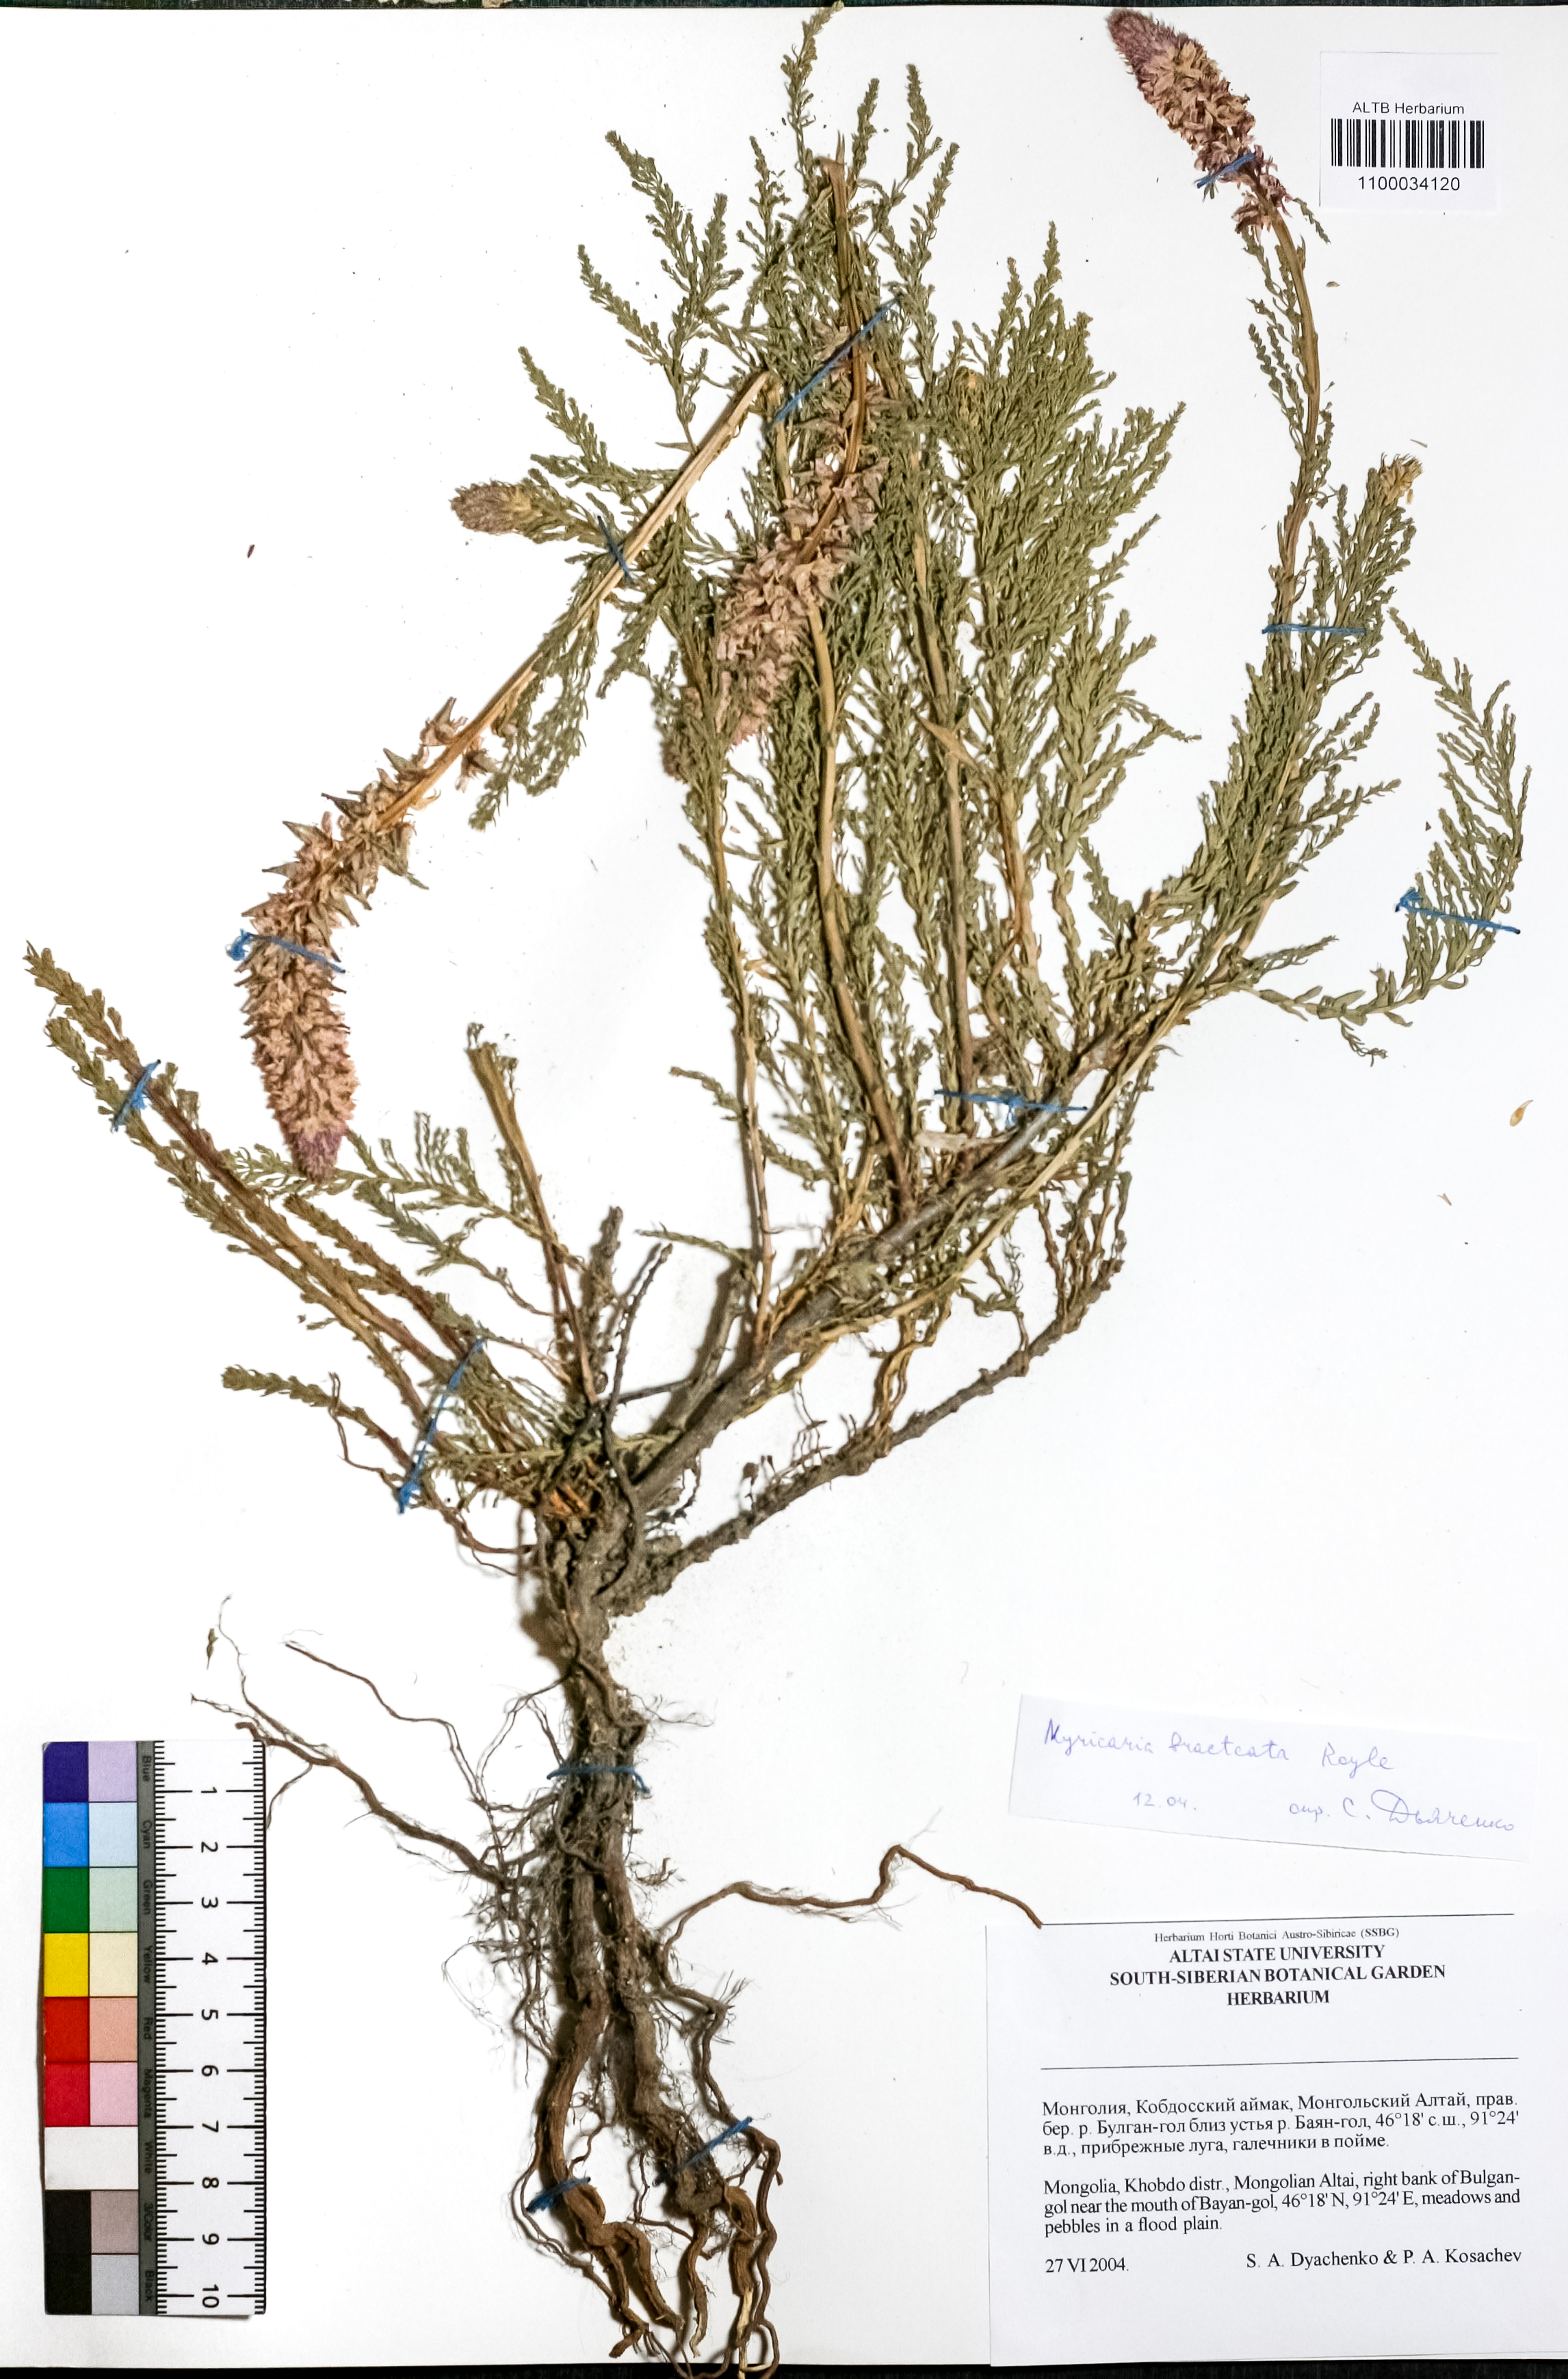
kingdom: Plantae
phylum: Tracheophyta
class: Magnoliopsida
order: Caryophyllales
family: Tamaricaceae
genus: Myricaria
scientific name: Myricaria bracteata
